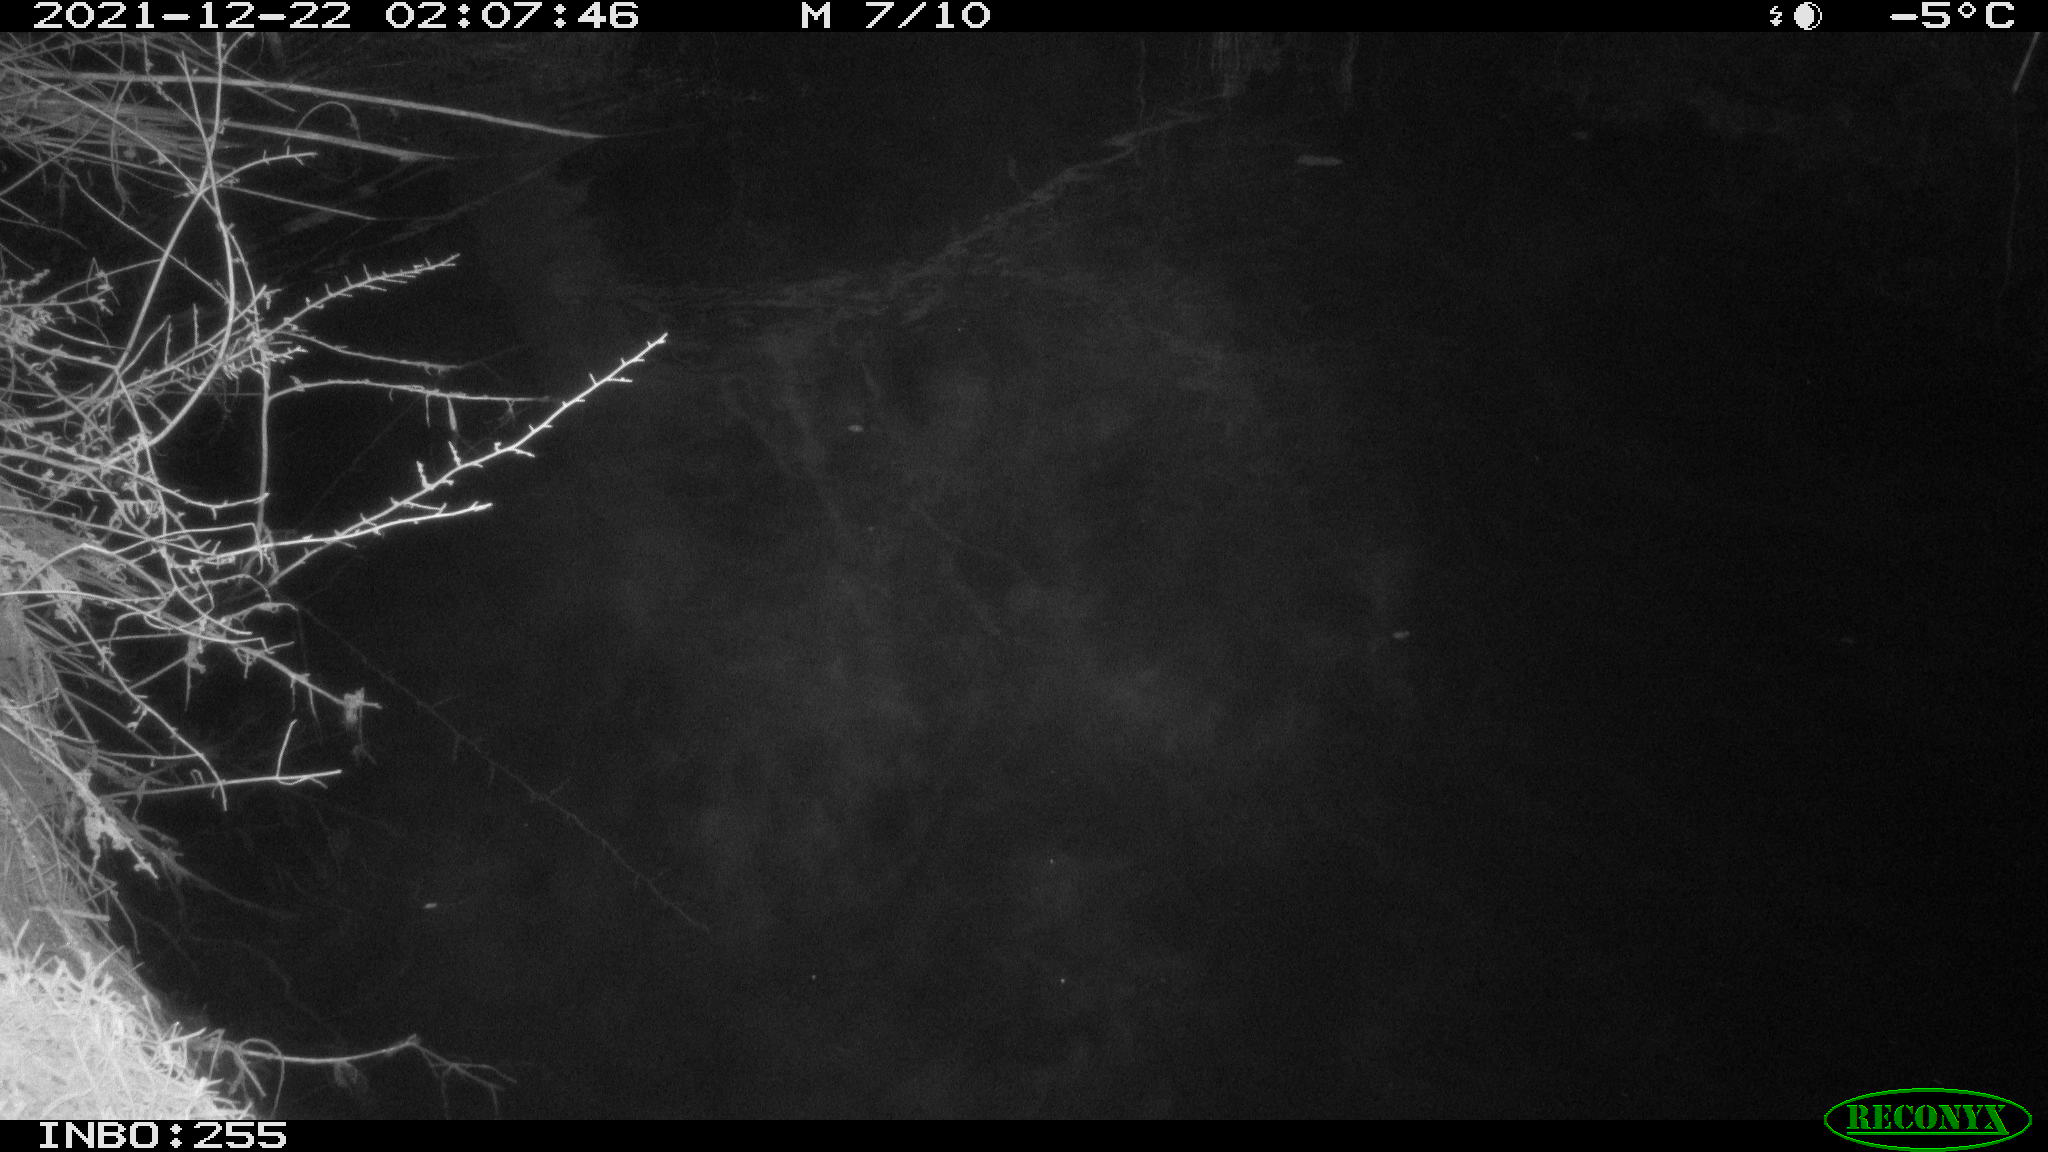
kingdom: Animalia
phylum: Chordata
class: Aves
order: Anseriformes
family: Anatidae
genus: Anas
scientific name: Anas
